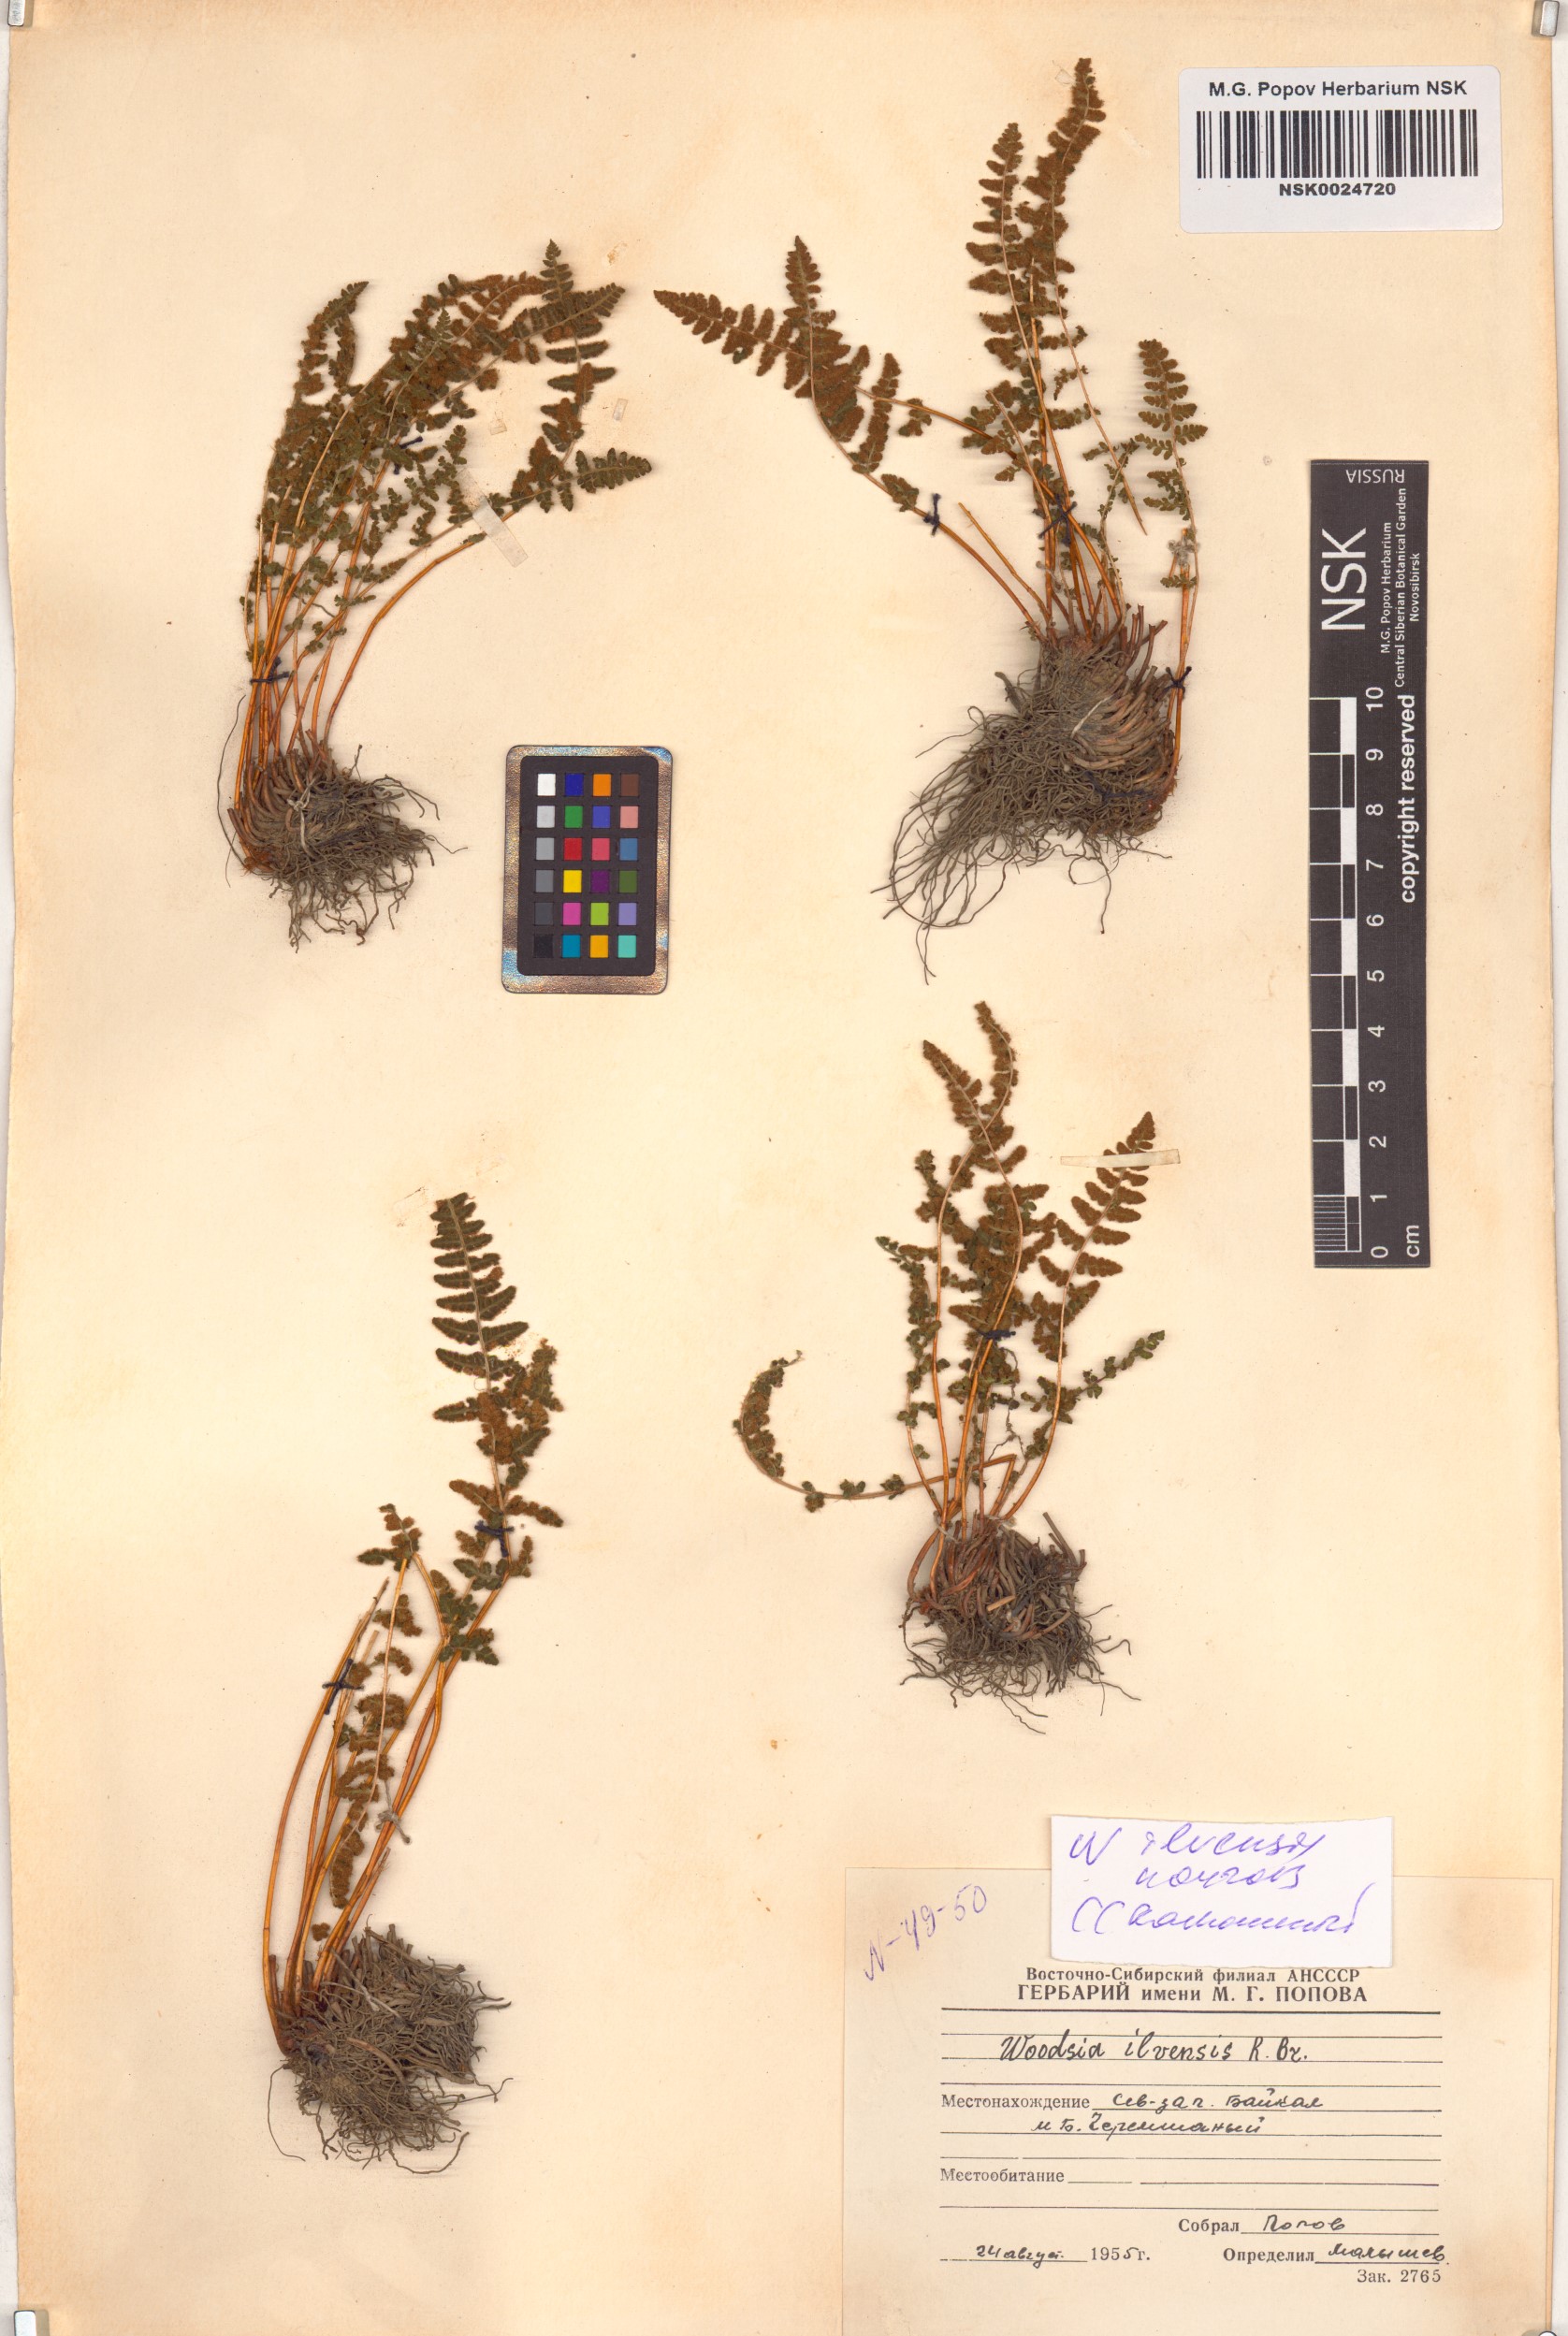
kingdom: Plantae
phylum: Tracheophyta
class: Polypodiopsida
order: Polypodiales
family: Woodsiaceae
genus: Woodsia
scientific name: Woodsia ilvensis
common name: Fragrant woodsia
